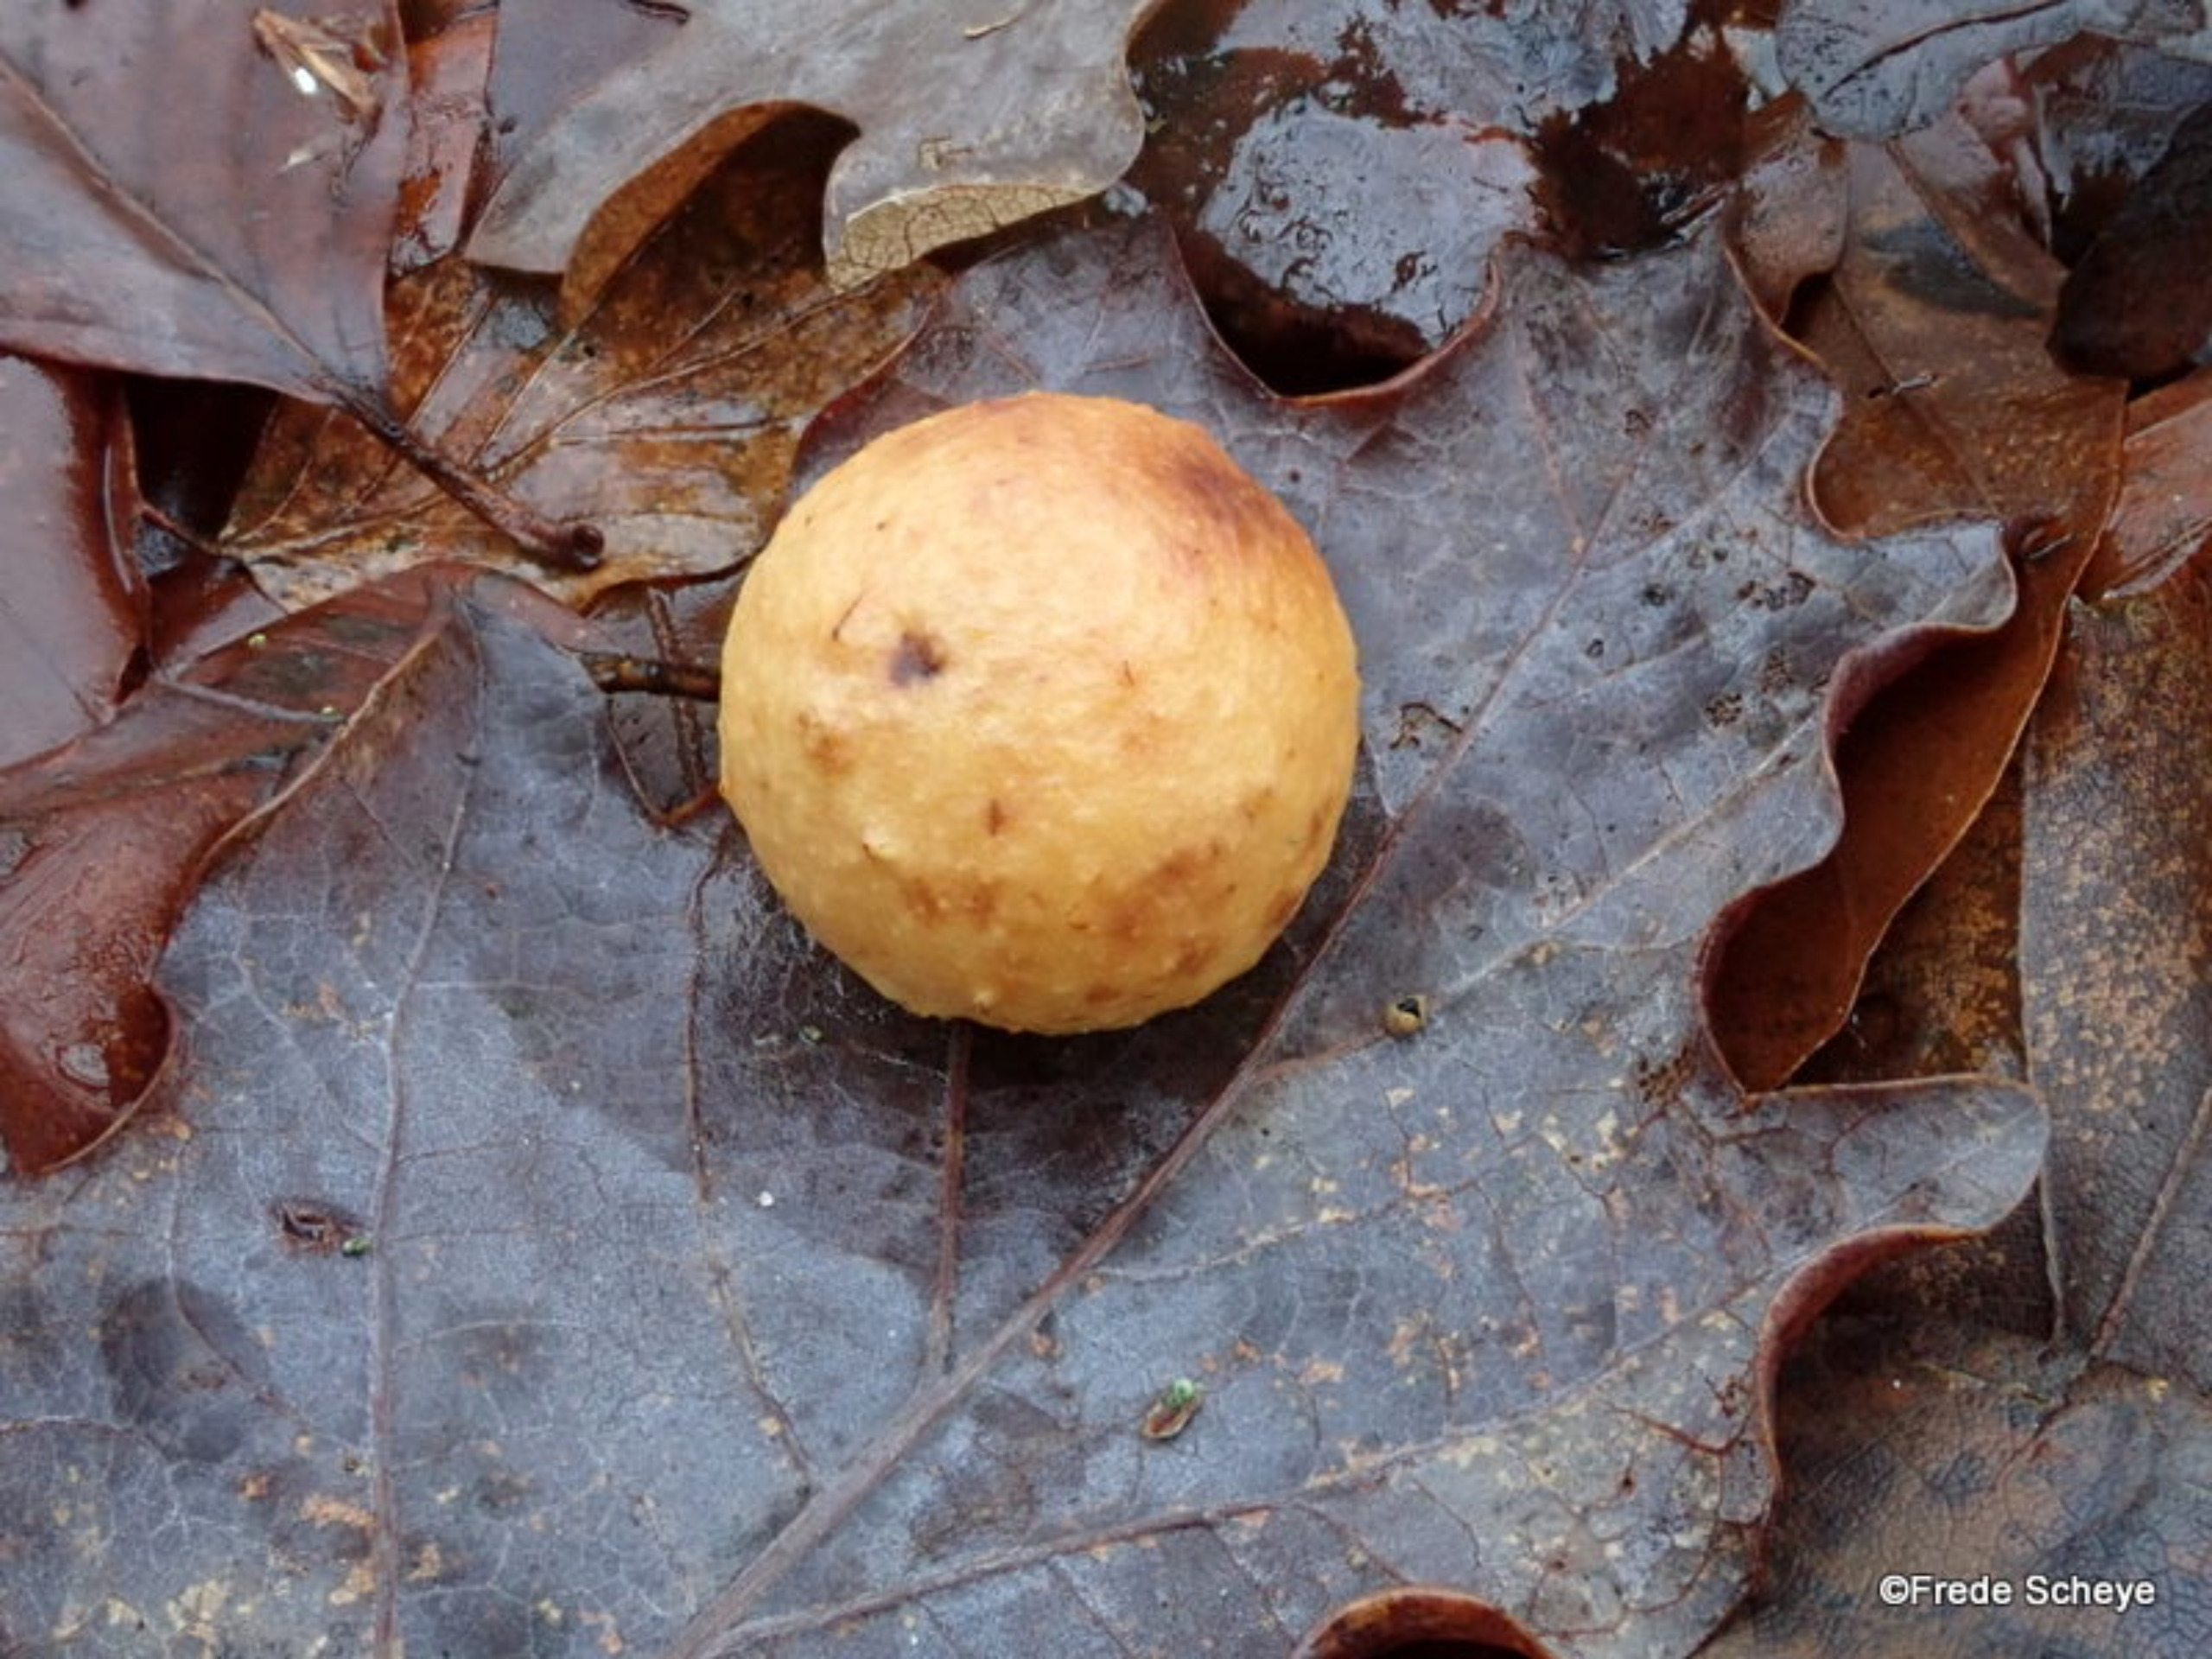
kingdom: Animalia
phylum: Arthropoda
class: Insecta
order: Hymenoptera
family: Cynipidae
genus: Cynips
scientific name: Cynips quercusfolii
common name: Stor galæblehveps
